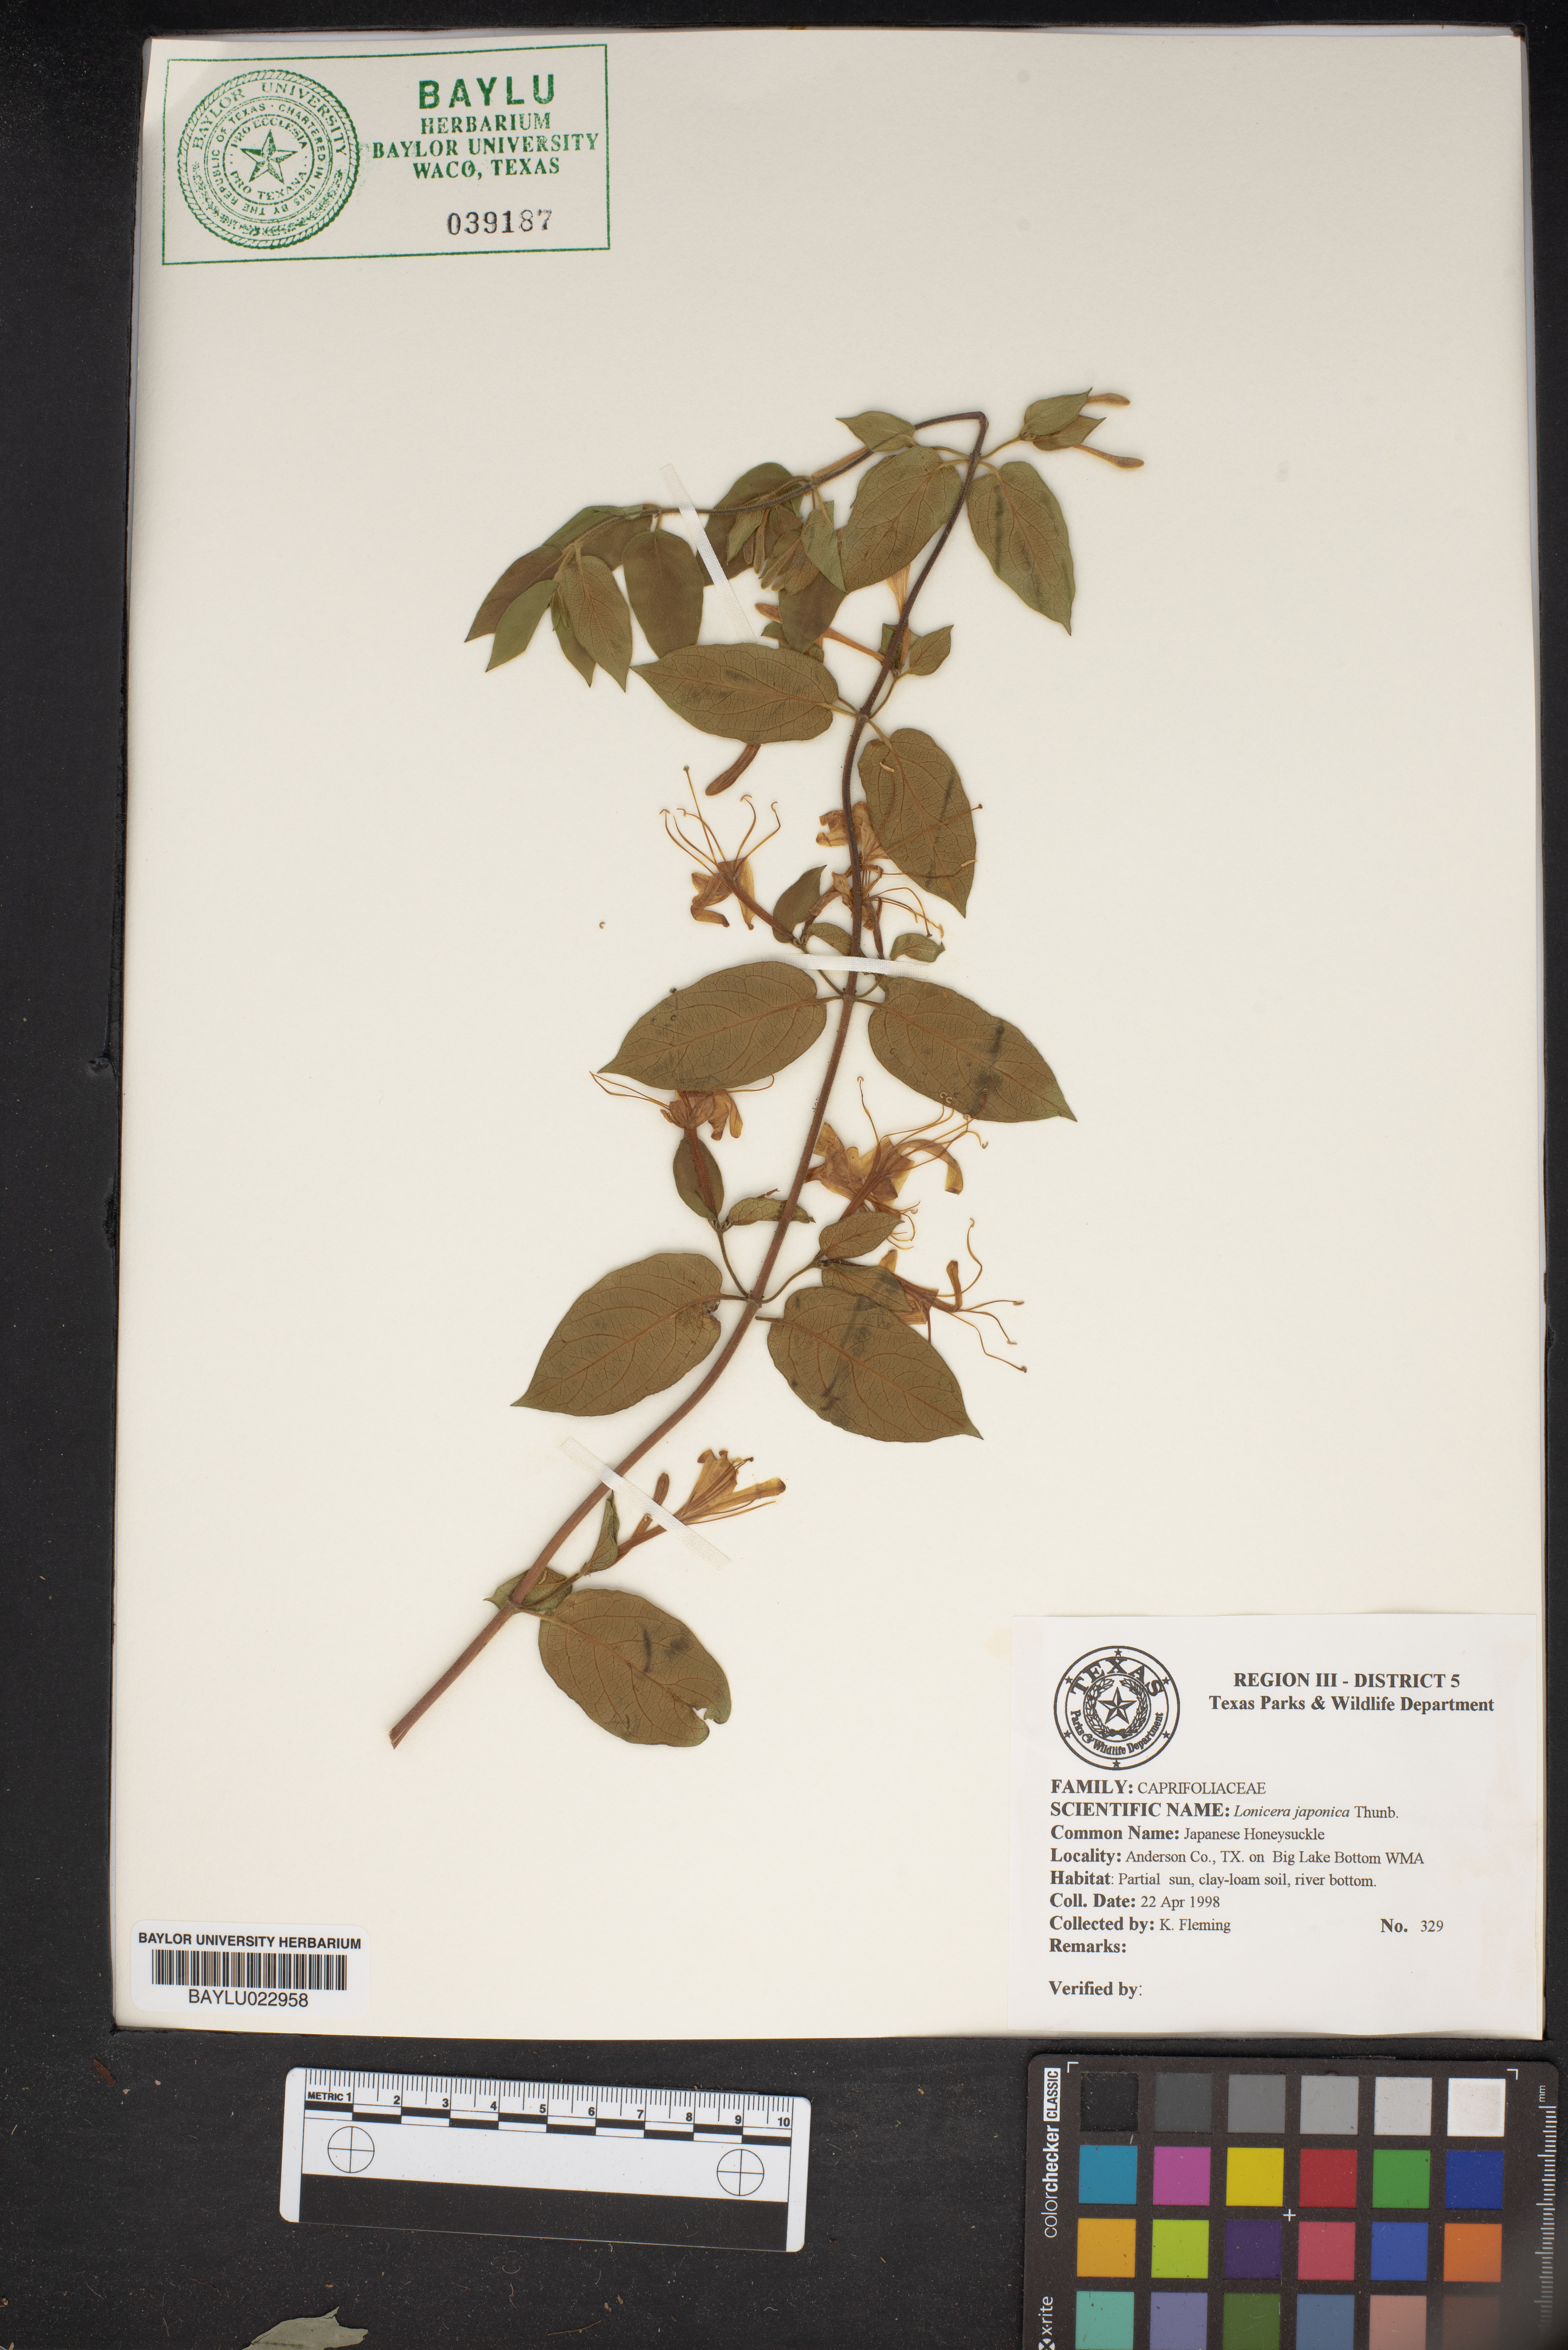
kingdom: Plantae
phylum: Tracheophyta
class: Magnoliopsida
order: Dipsacales
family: Caprifoliaceae
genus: Lonicera
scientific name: Lonicera japonica
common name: Japanese honeysuckle
